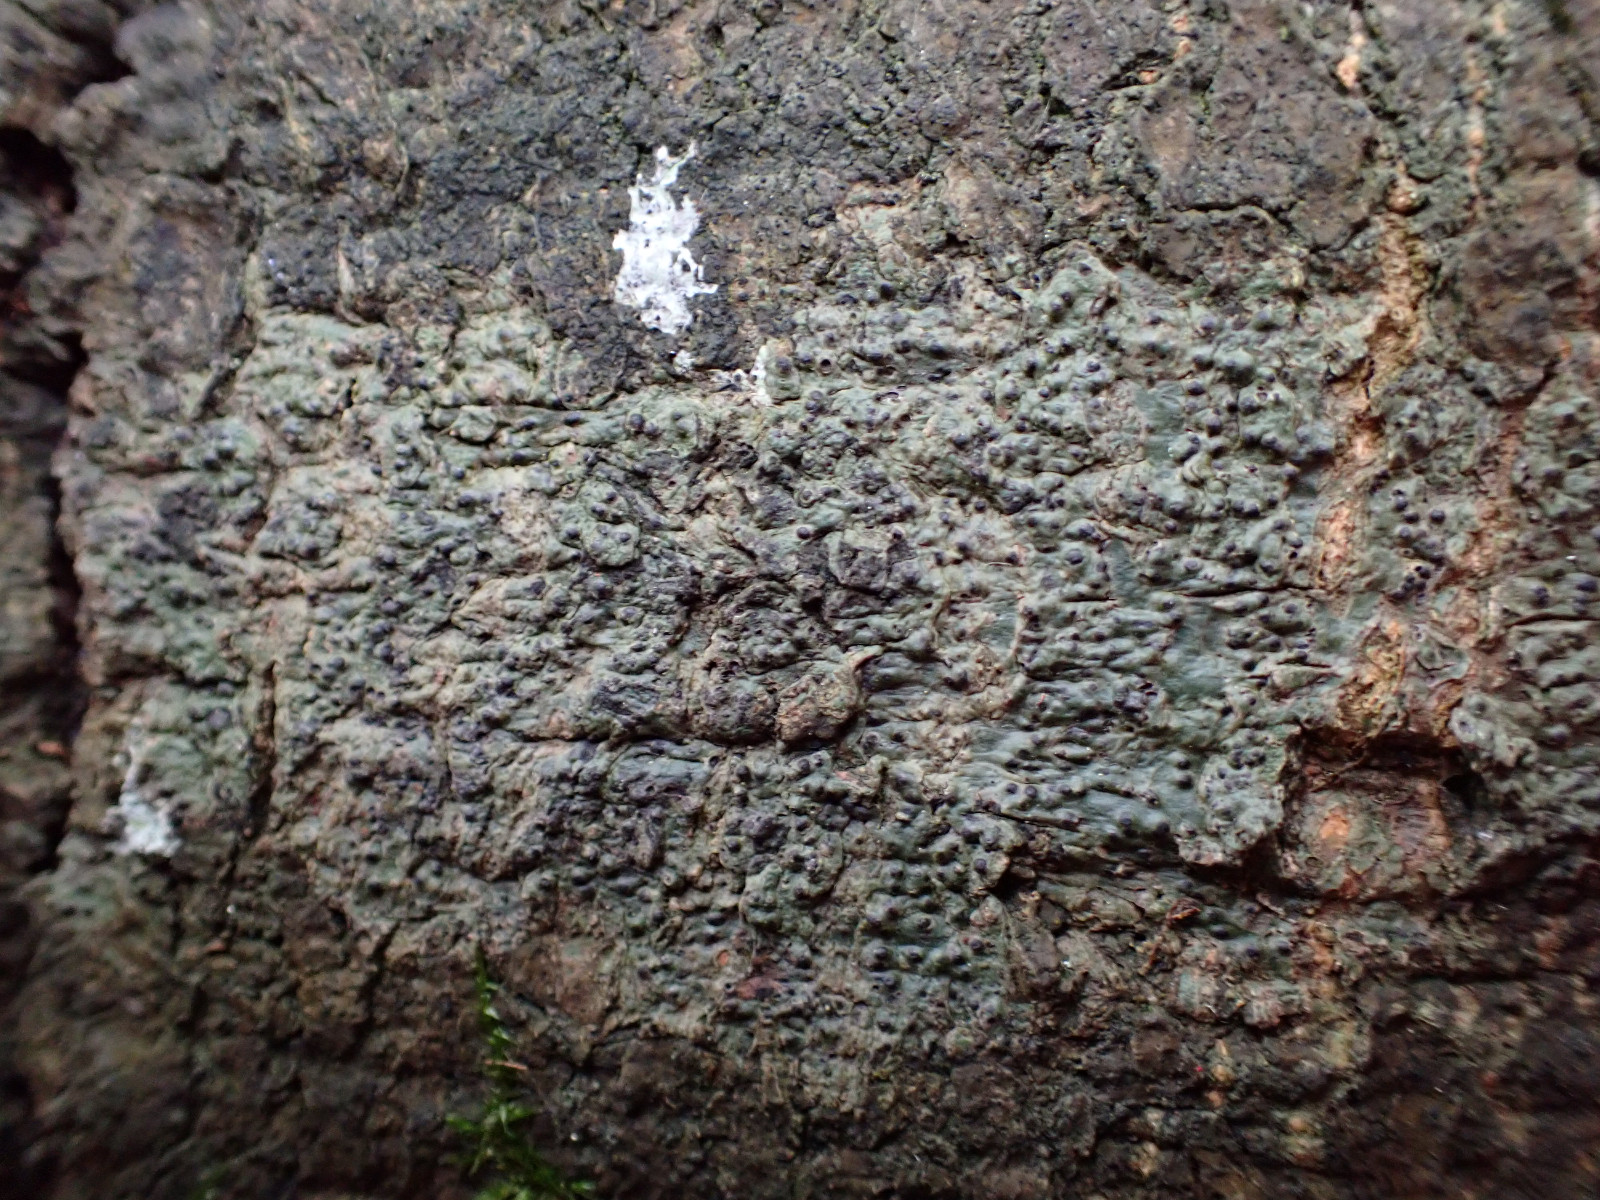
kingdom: Fungi
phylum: Ascomycota
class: Eurotiomycetes
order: Pyrenulales
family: Pyrenulaceae
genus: Pyrenula
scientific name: Pyrenula nitida
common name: glinsende kernelav
